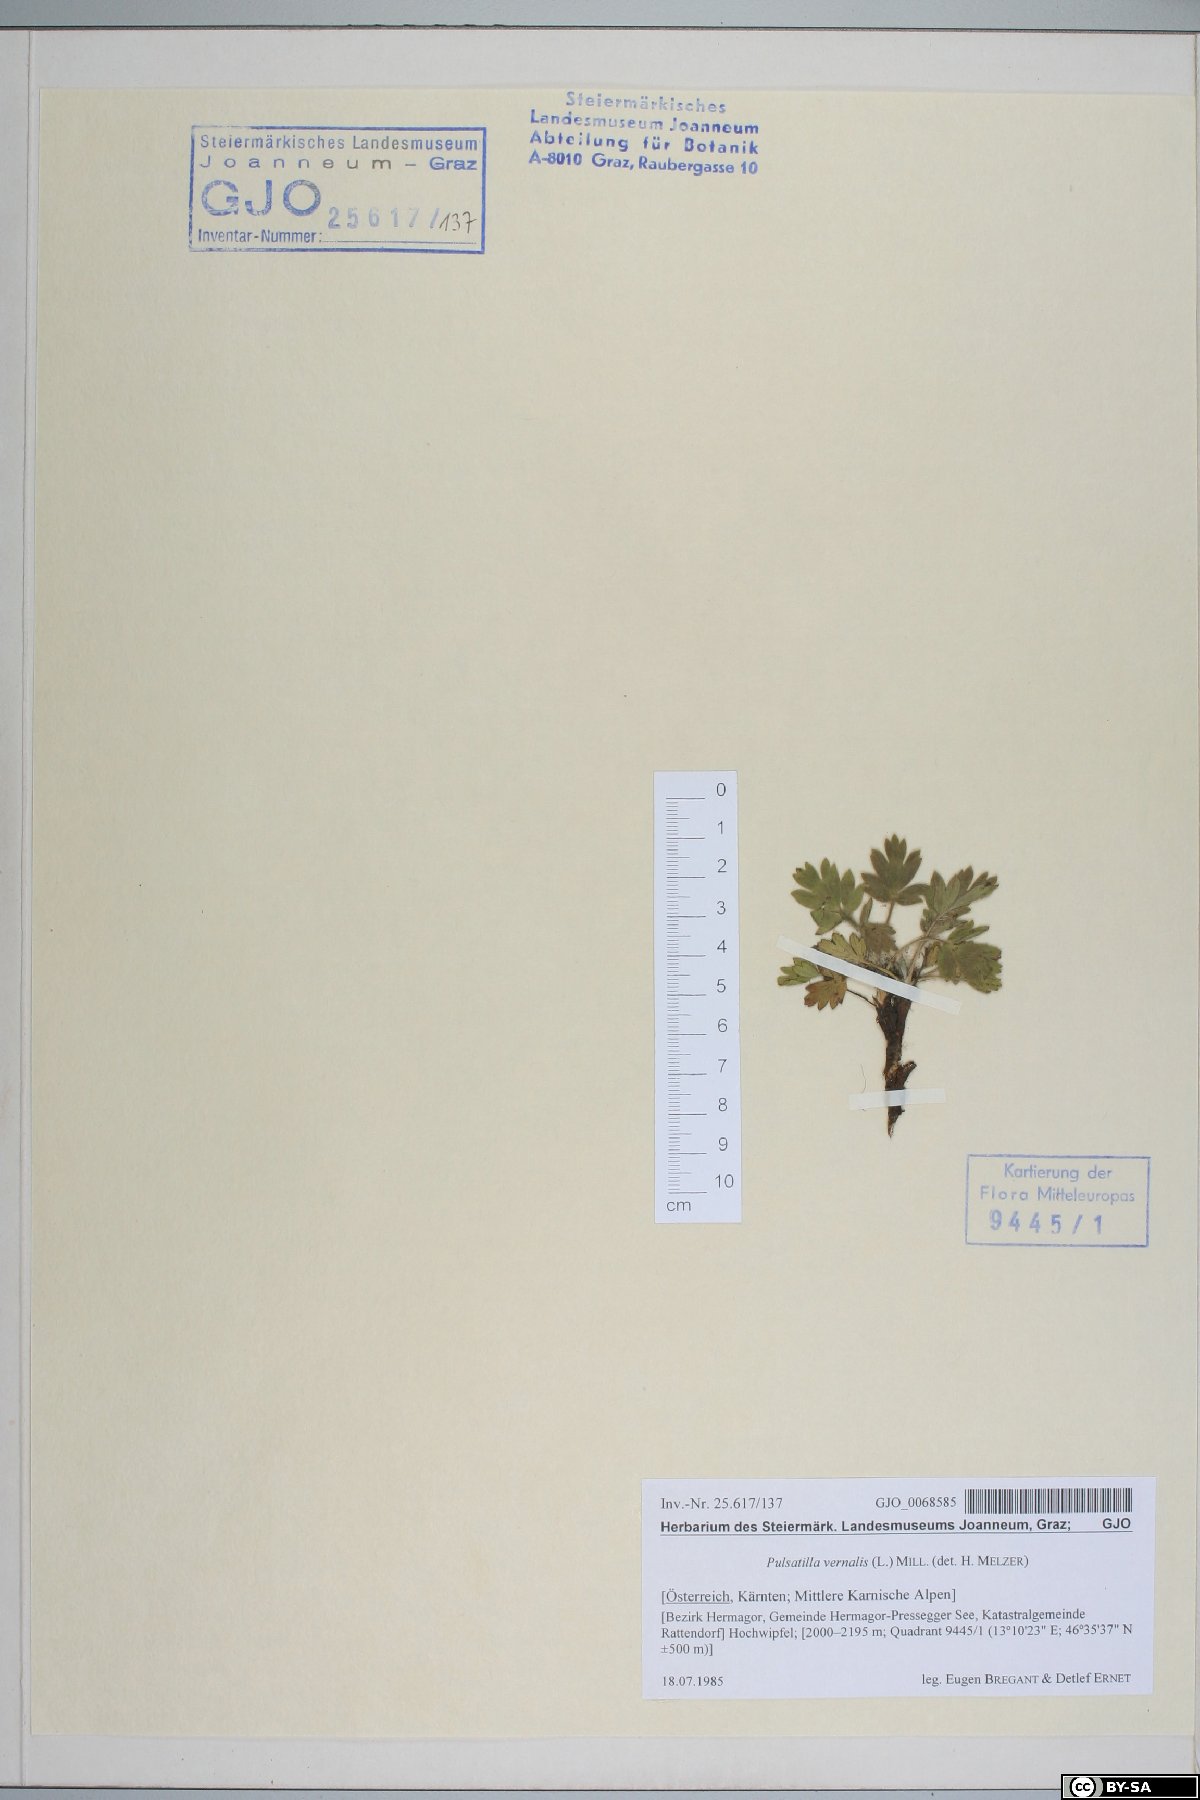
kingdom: Plantae
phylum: Tracheophyta
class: Magnoliopsida
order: Ranunculales
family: Ranunculaceae
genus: Pulsatilla
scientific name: Pulsatilla vernalis
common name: Spring pasque flower
